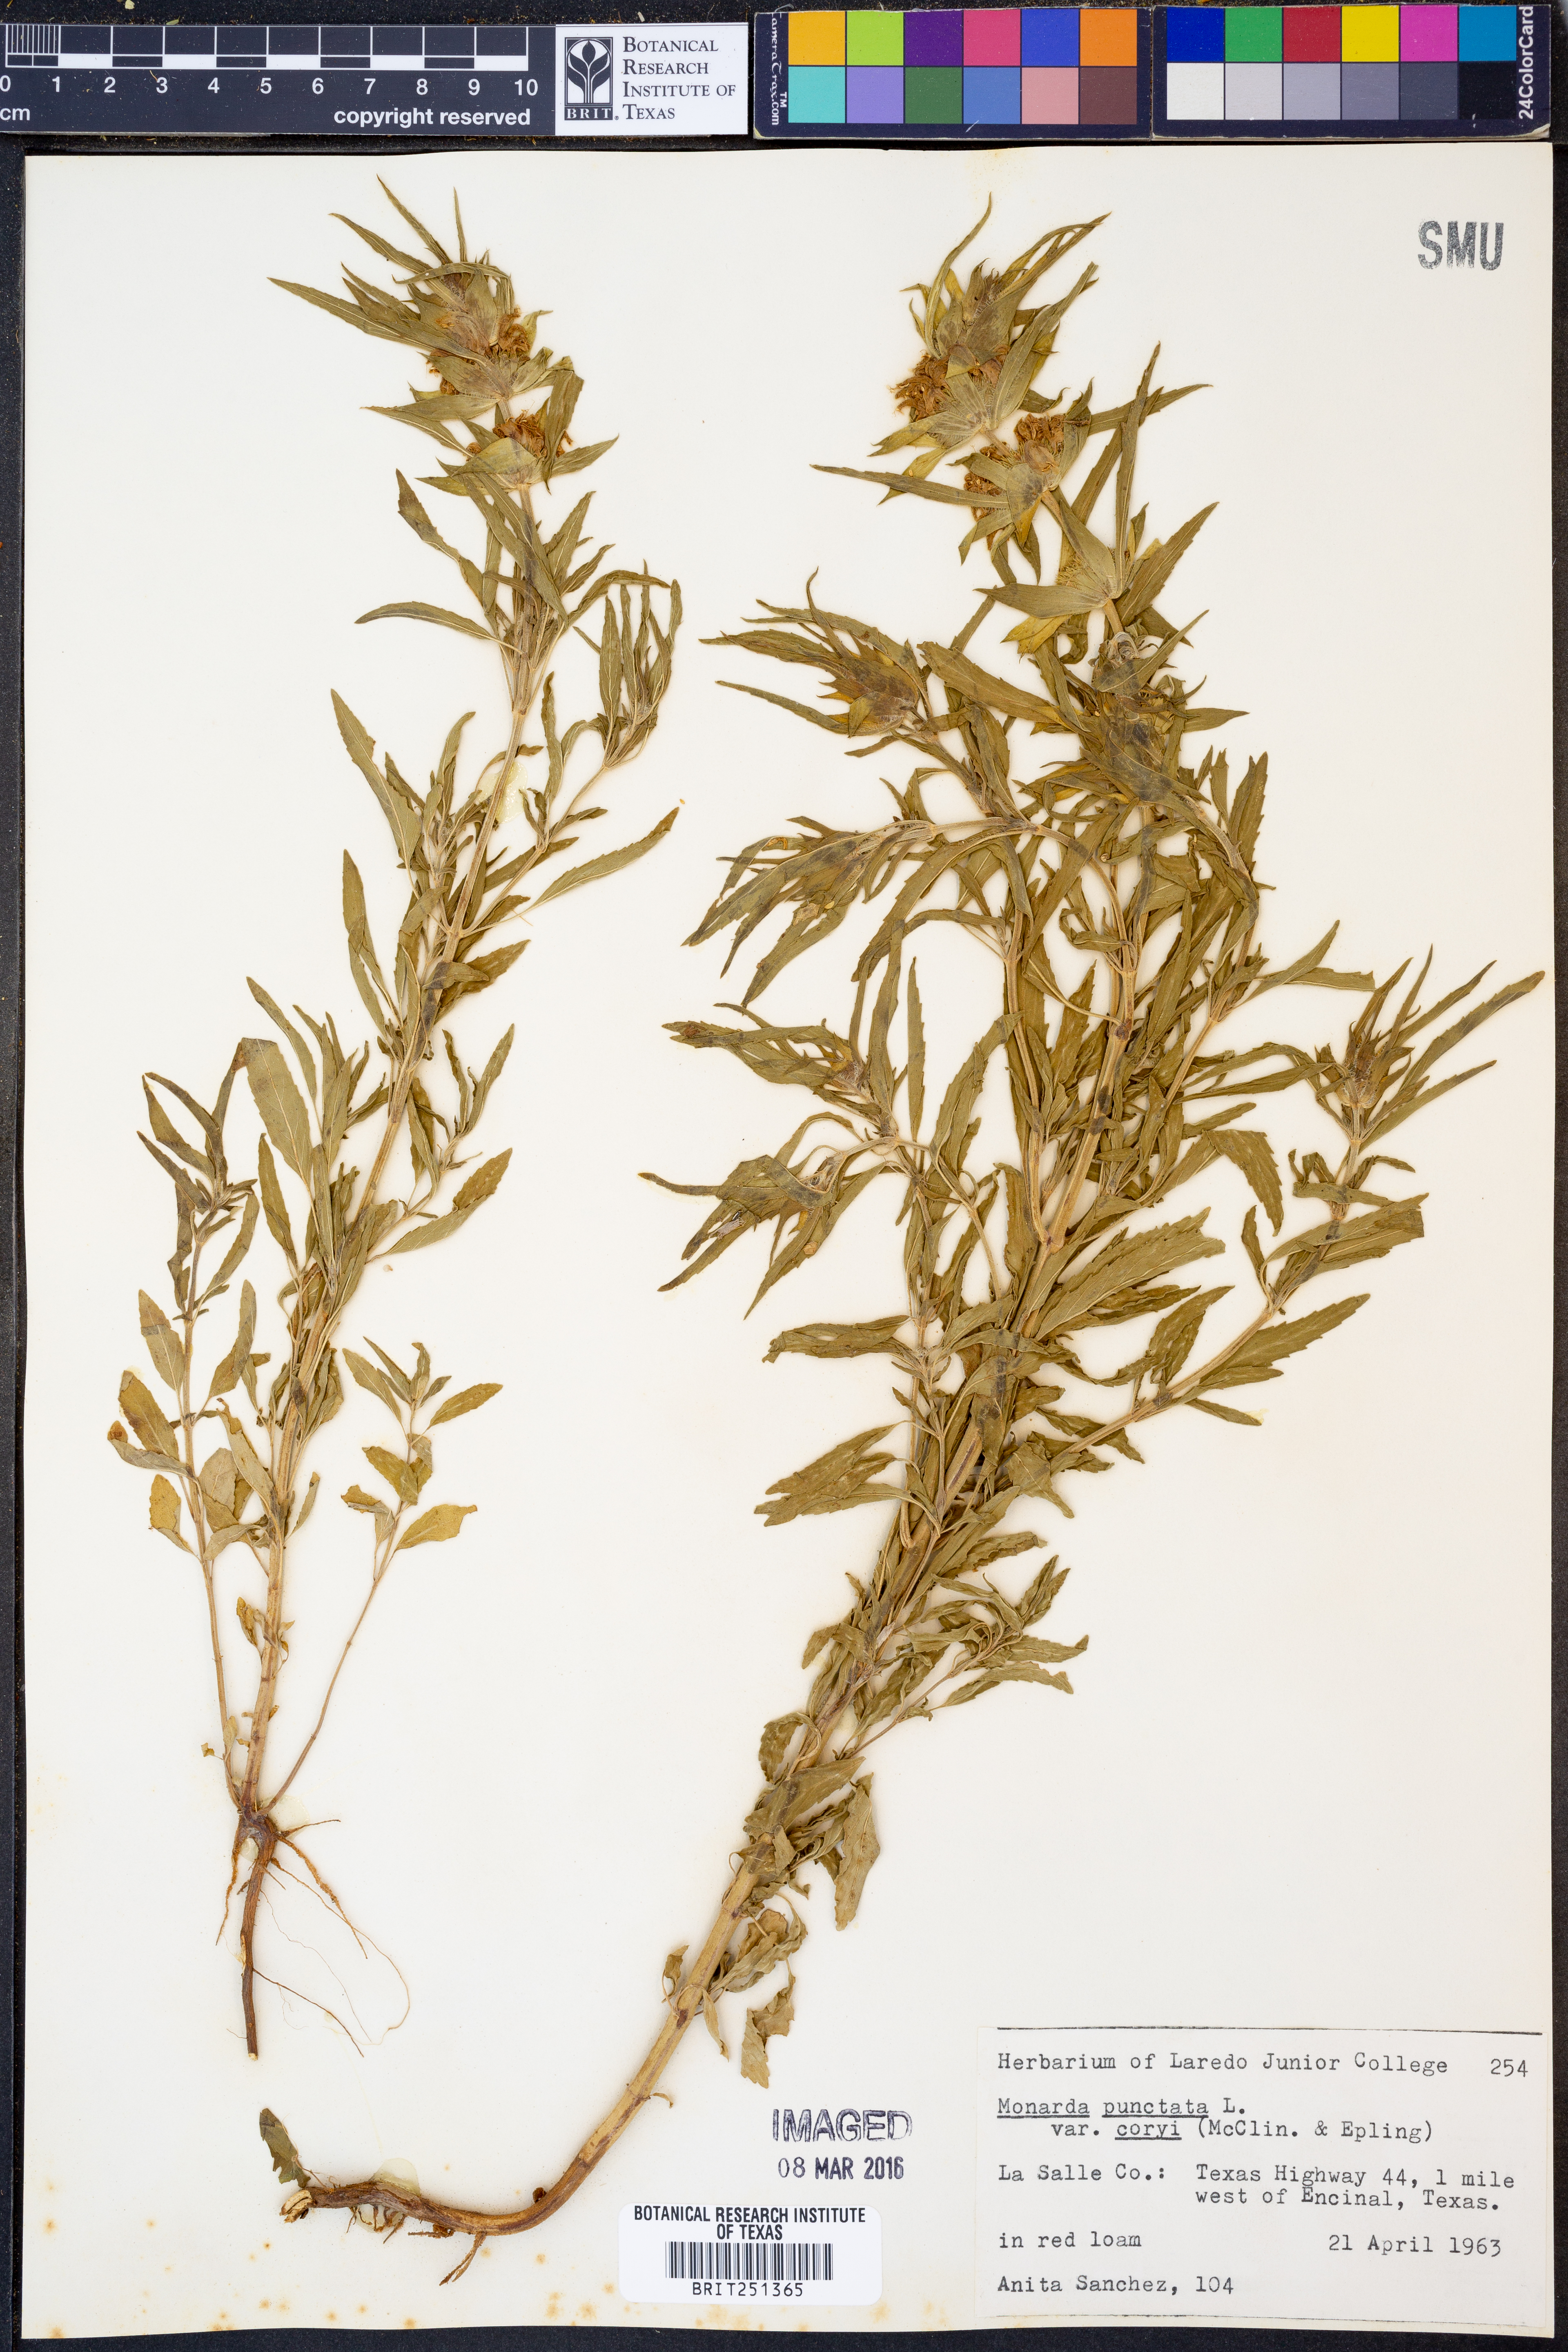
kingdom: Plantae
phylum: Tracheophyta
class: Magnoliopsida
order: Lamiales
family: Lamiaceae
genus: Monarda
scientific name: Monarda punctata
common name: Dotted monarda
